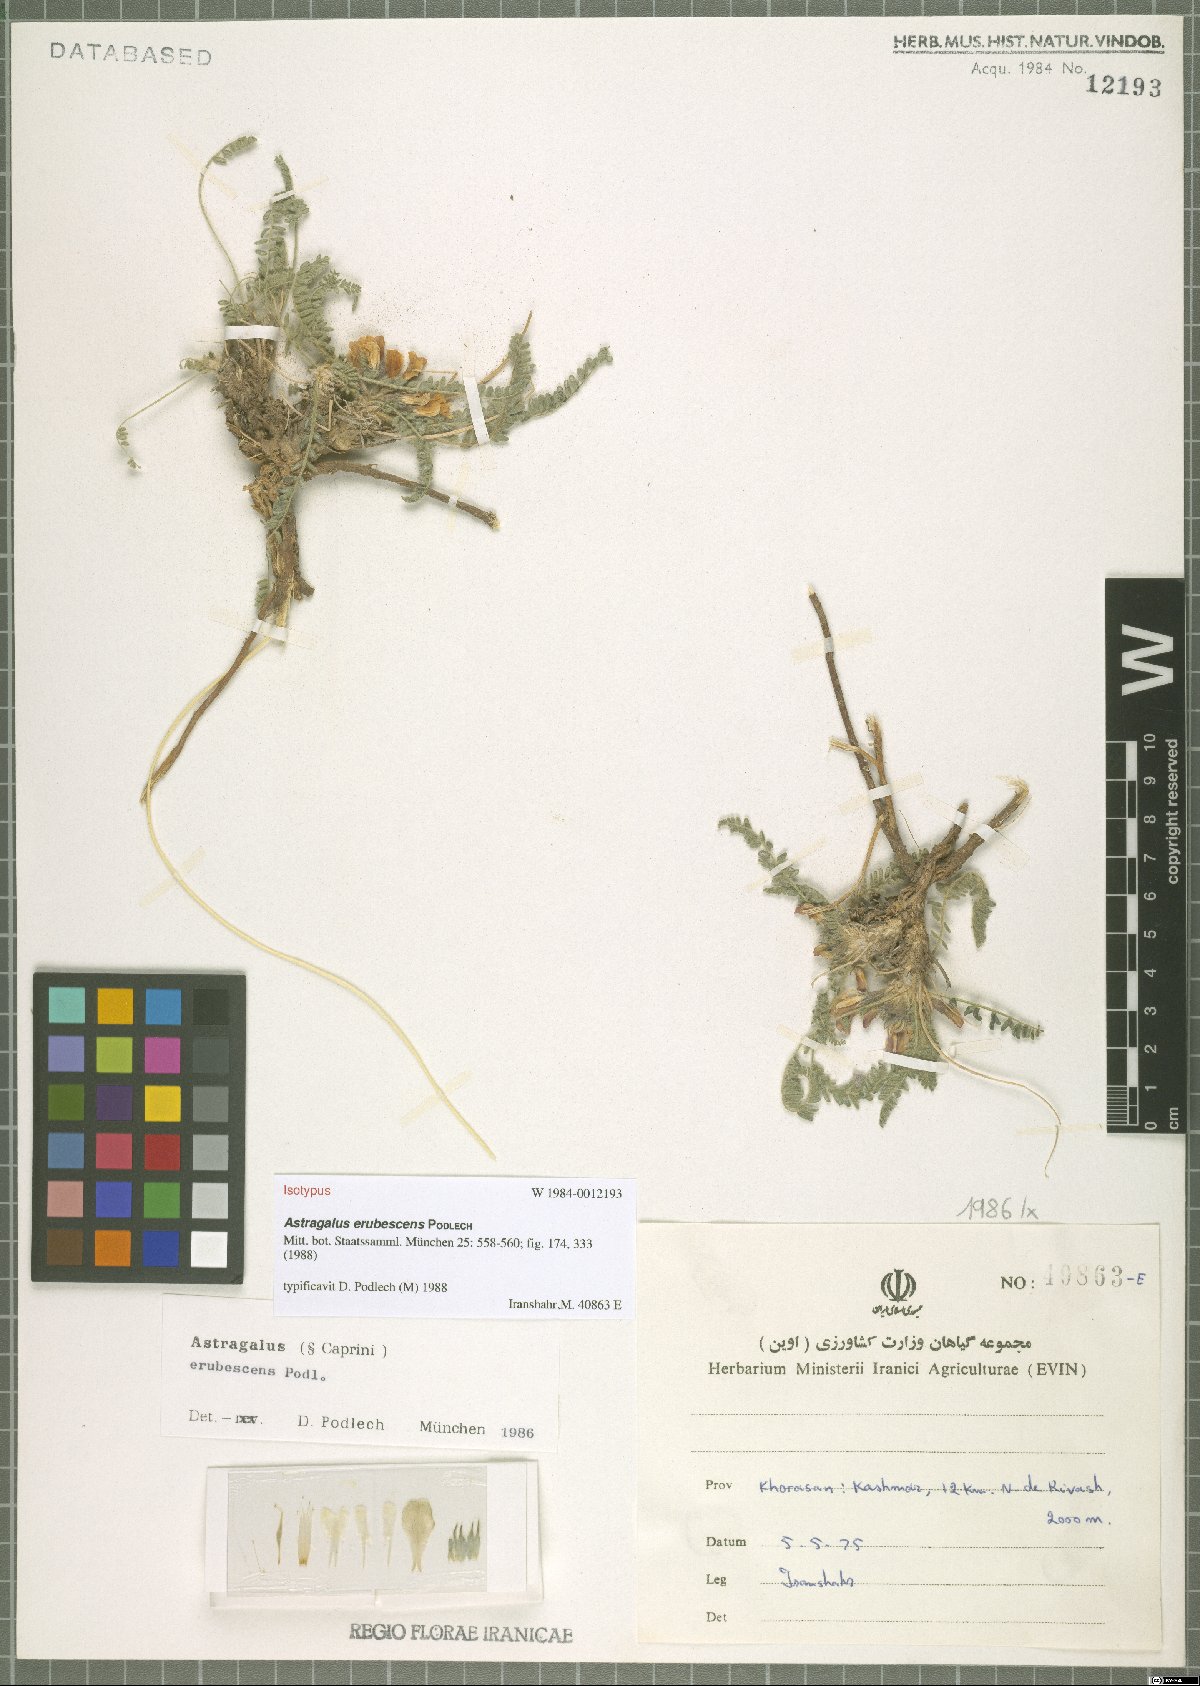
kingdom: Plantae
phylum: Tracheophyta
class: Magnoliopsida
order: Fabales
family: Fabaceae
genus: Astragalus
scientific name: Astragalus erubescens
